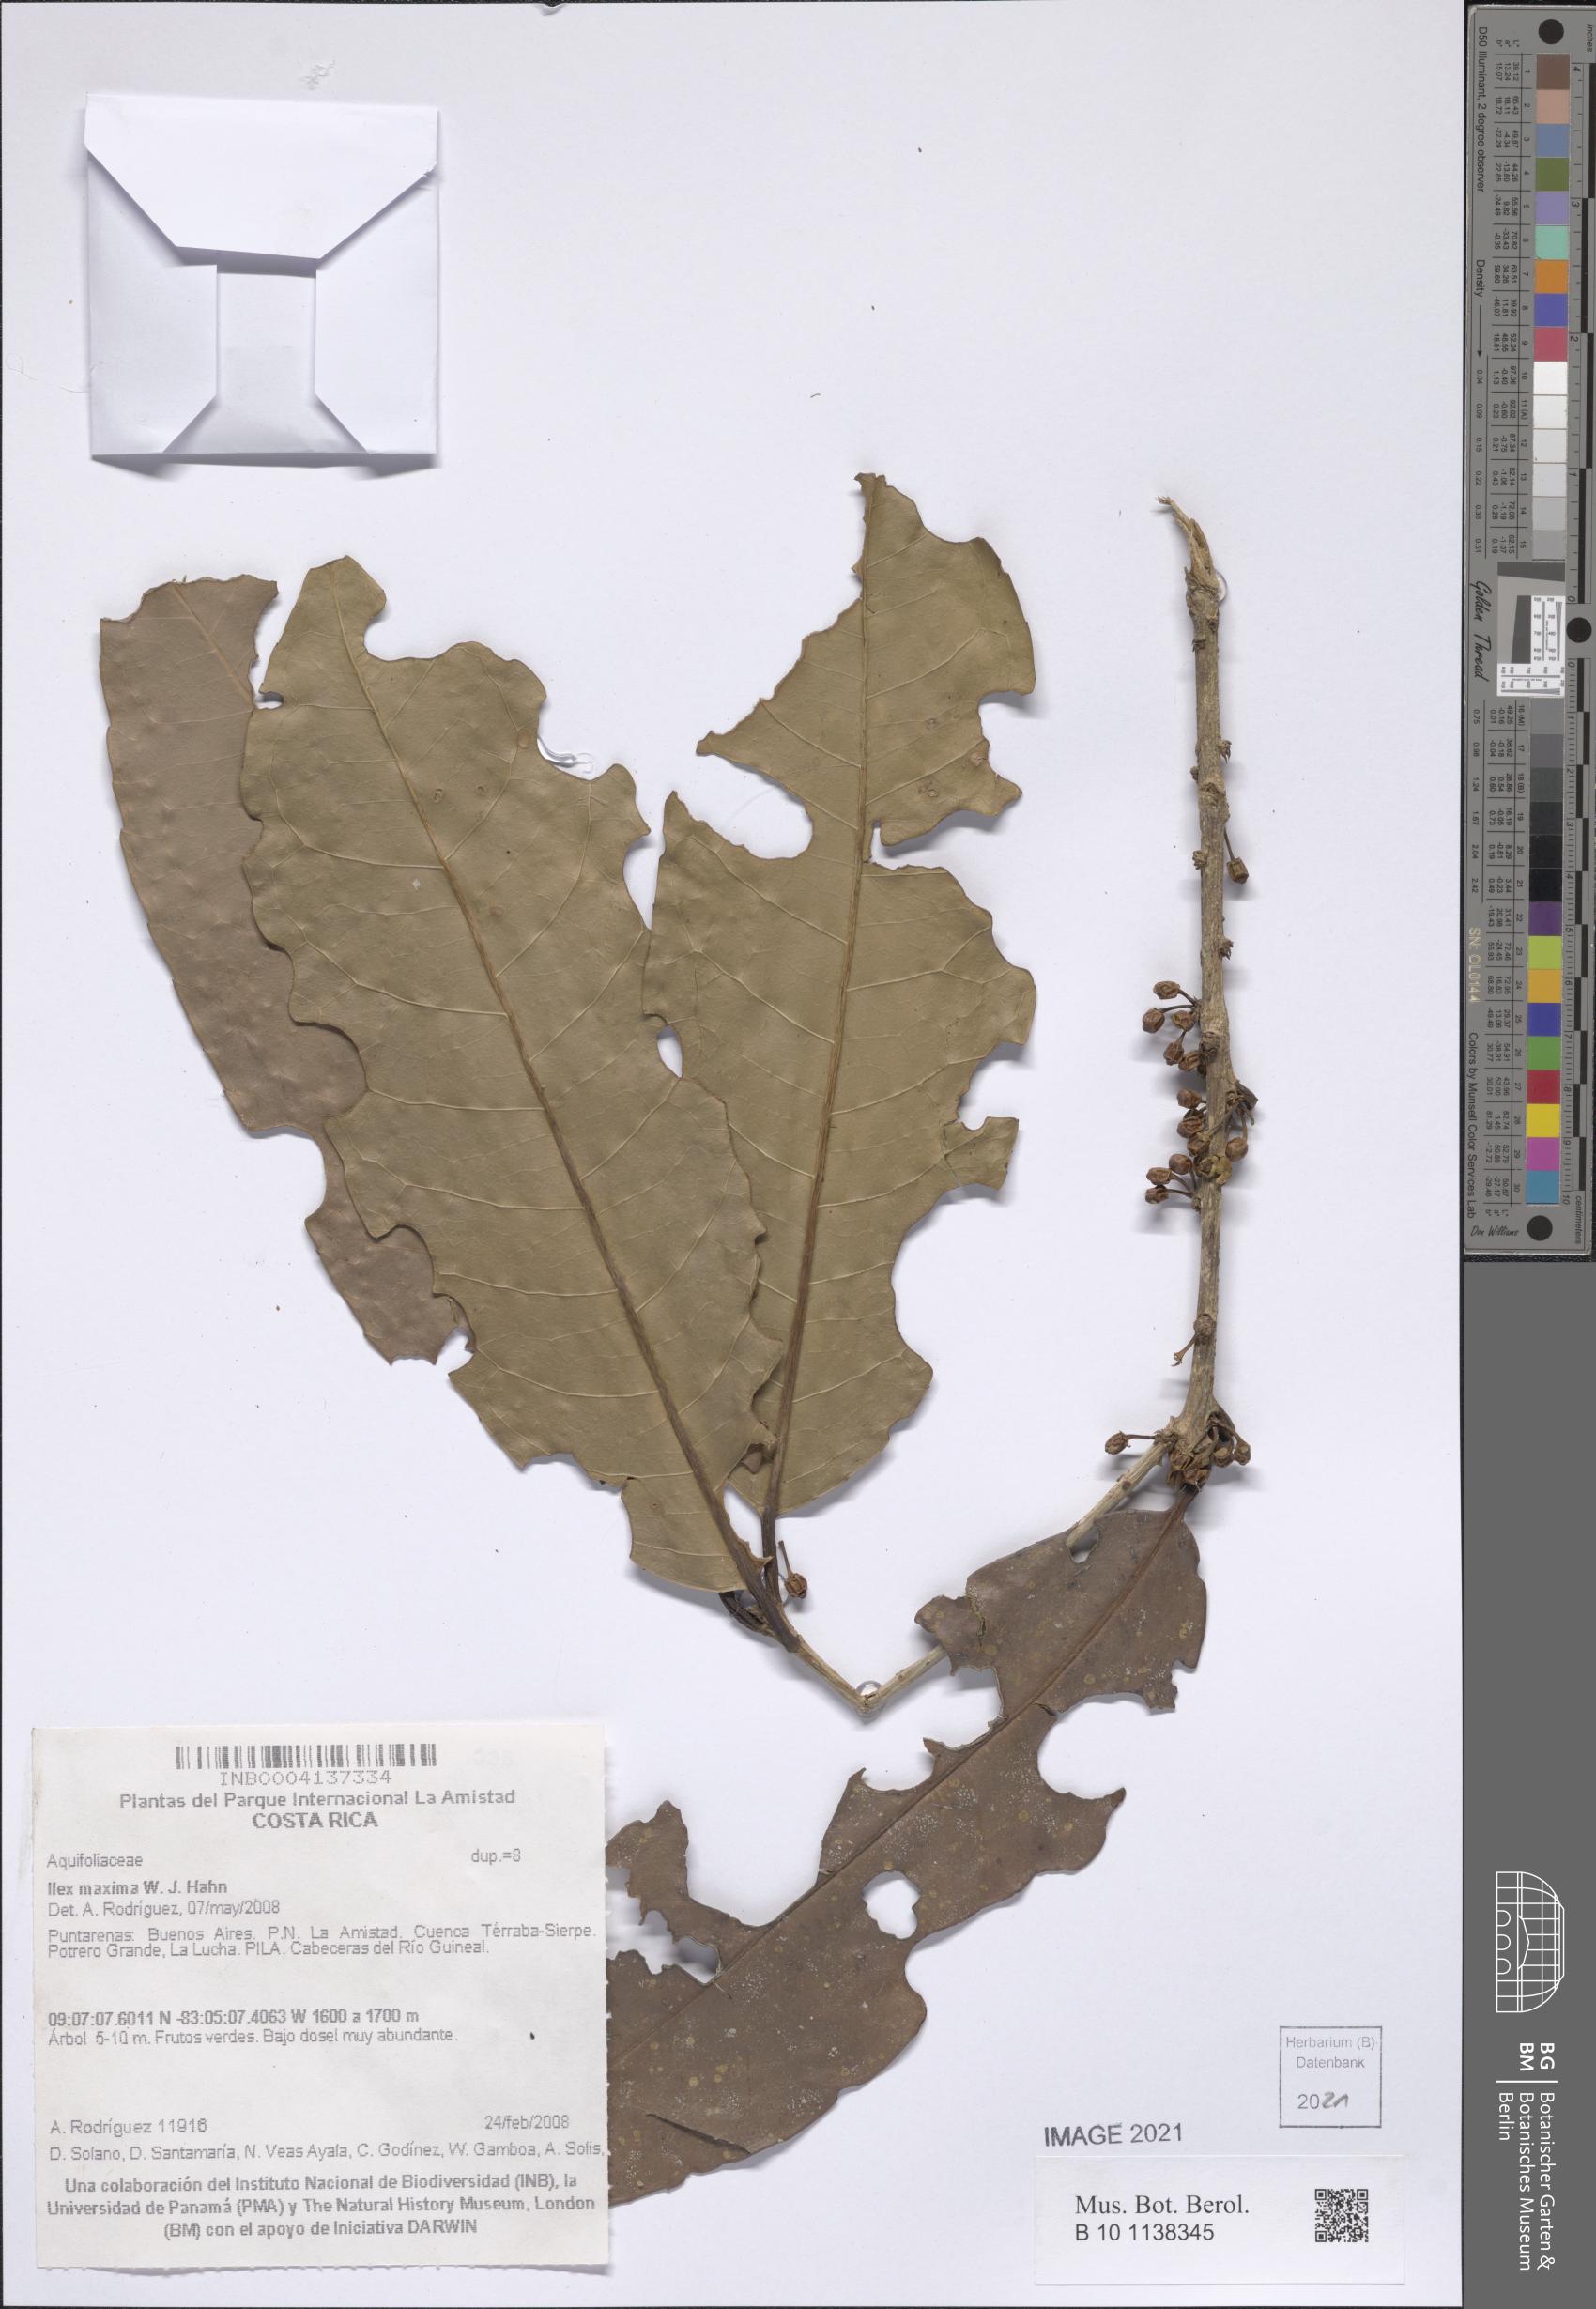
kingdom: Plantae
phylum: Tracheophyta
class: Magnoliopsida
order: Aquifoliales
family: Aquifoliaceae
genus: Ilex
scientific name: Ilex maxima
